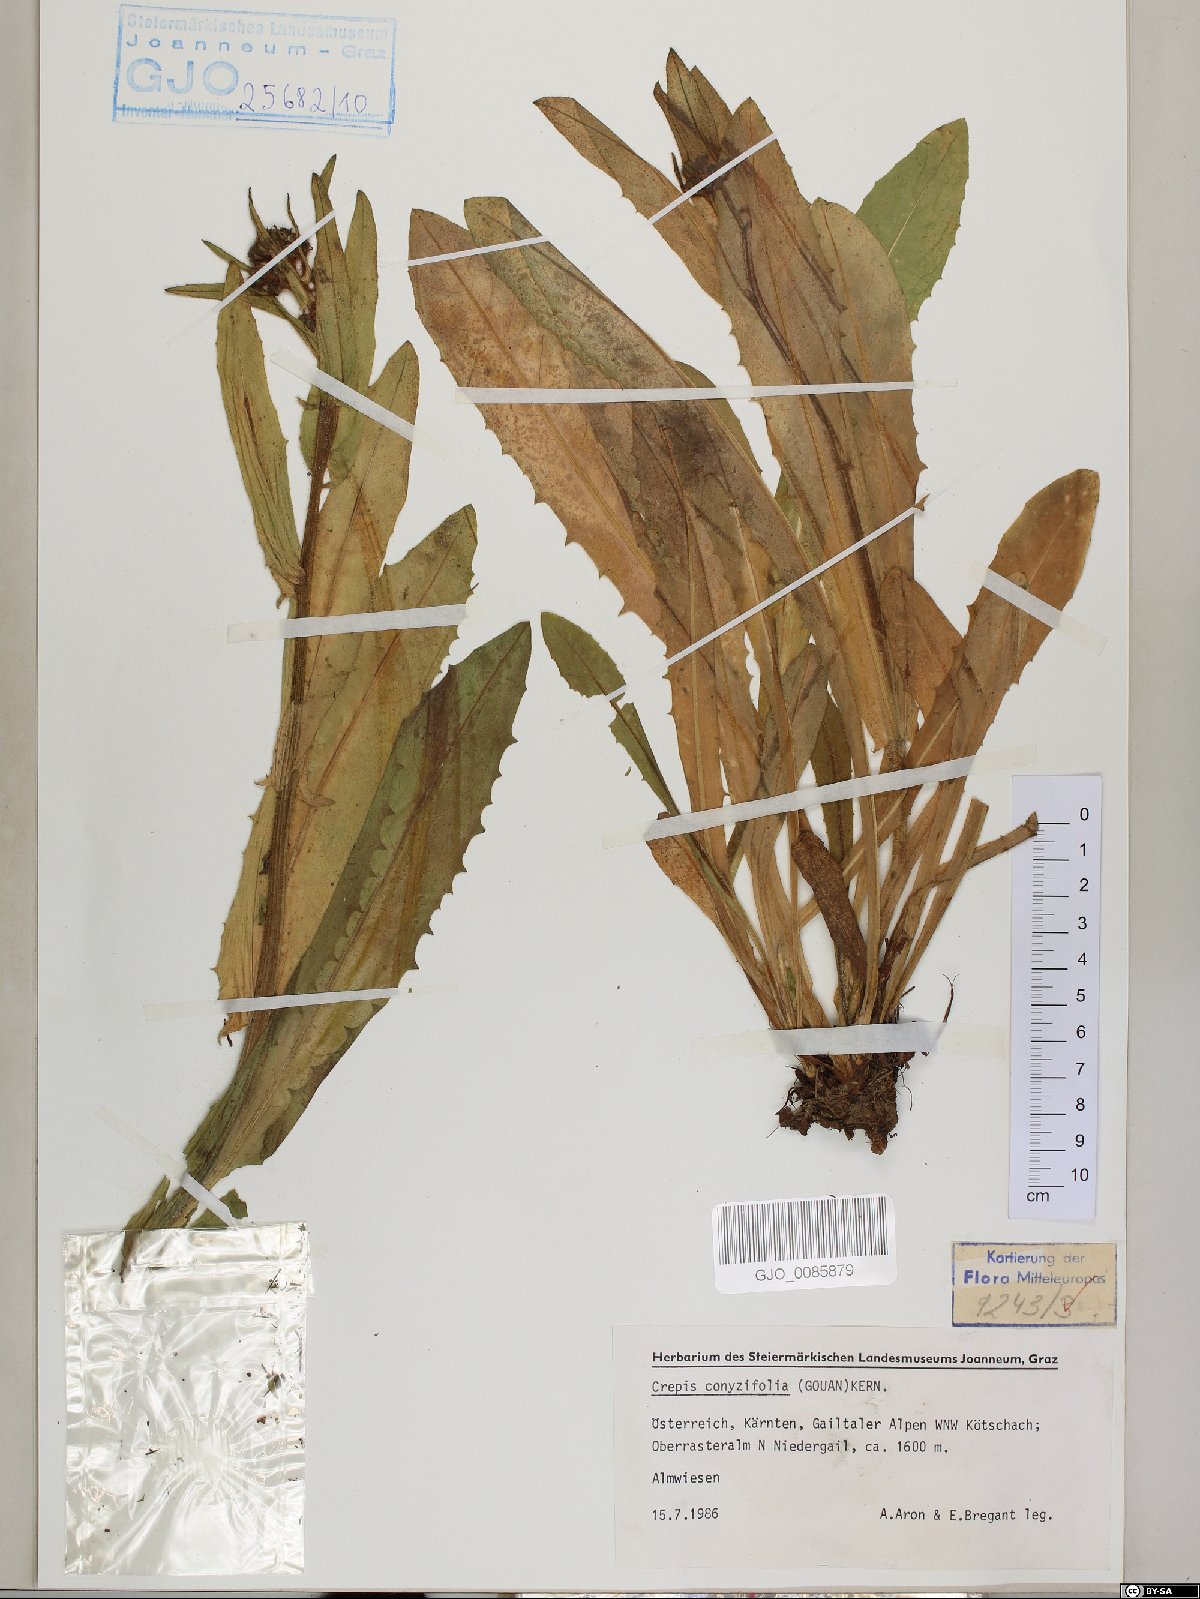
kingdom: Plantae
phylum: Tracheophyta
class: Magnoliopsida
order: Asterales
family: Asteraceae
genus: Crepis
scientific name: Crepis blattarioides
